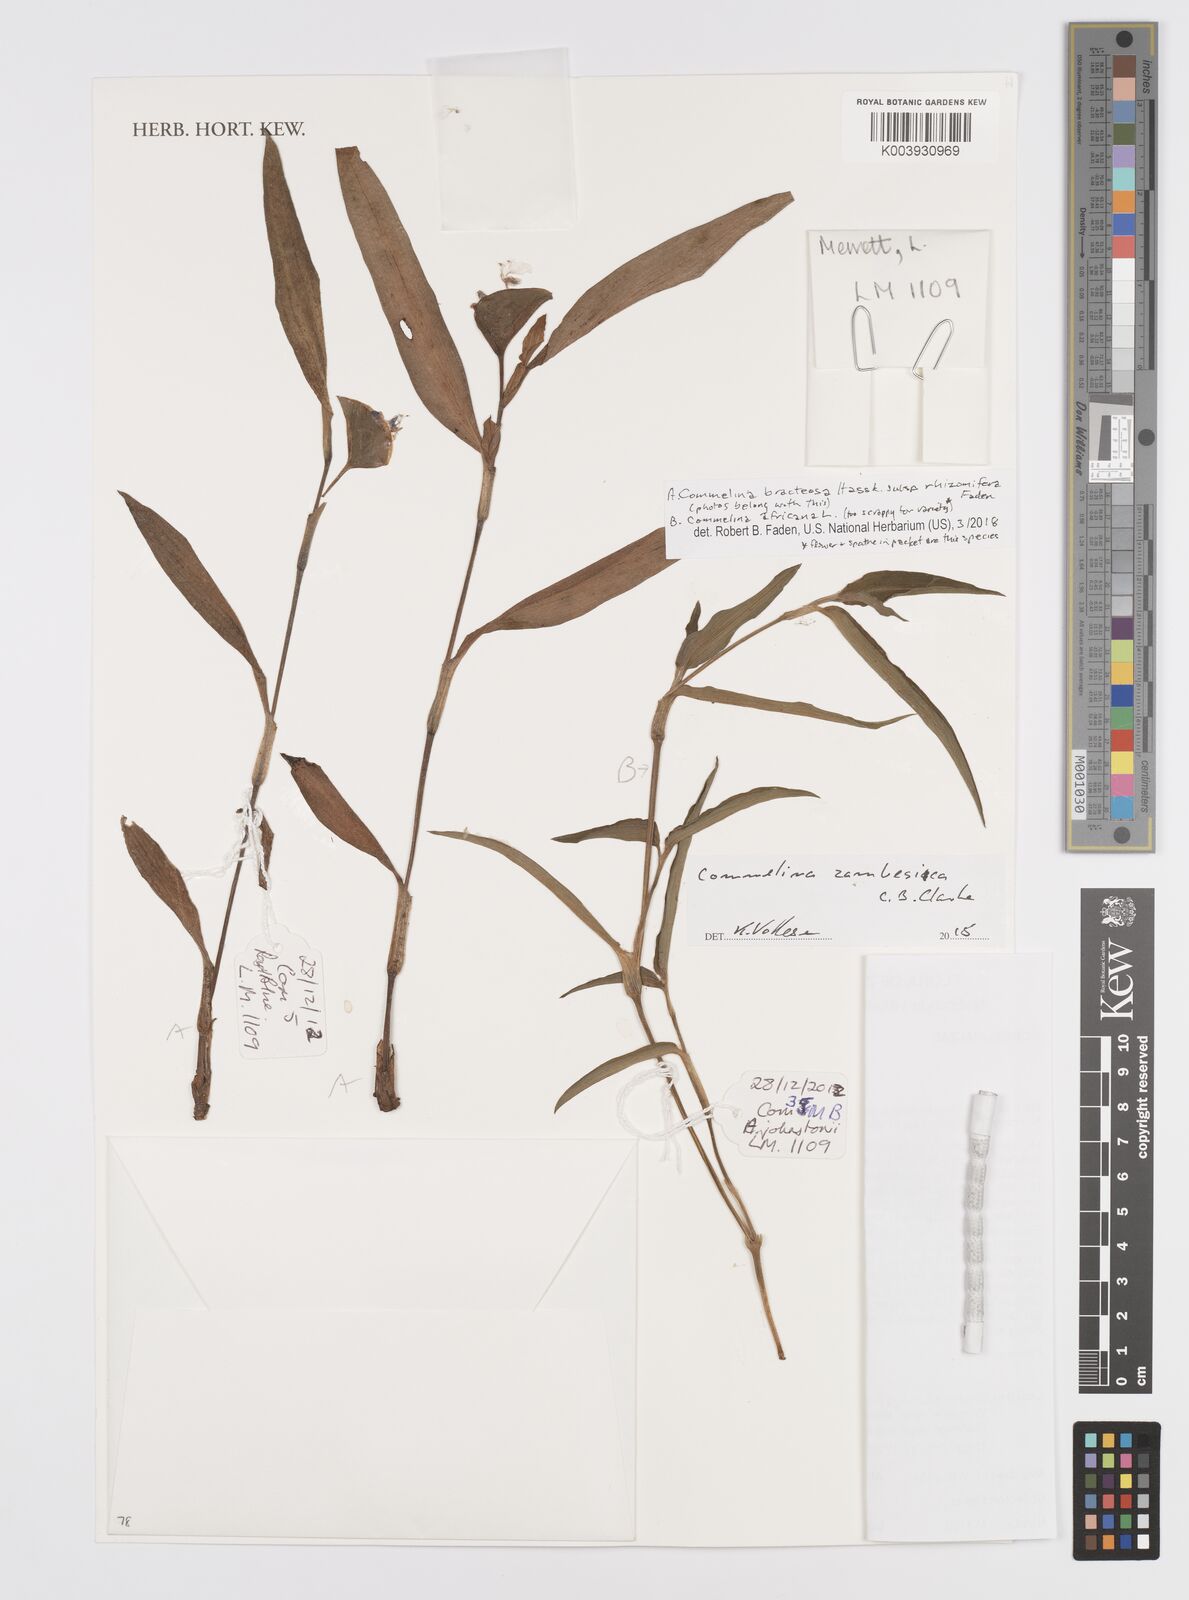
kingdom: Plantae
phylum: Tracheophyta
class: Liliopsida
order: Commelinales
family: Commelinaceae
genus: Commelina
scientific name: Commelina bracteosa
